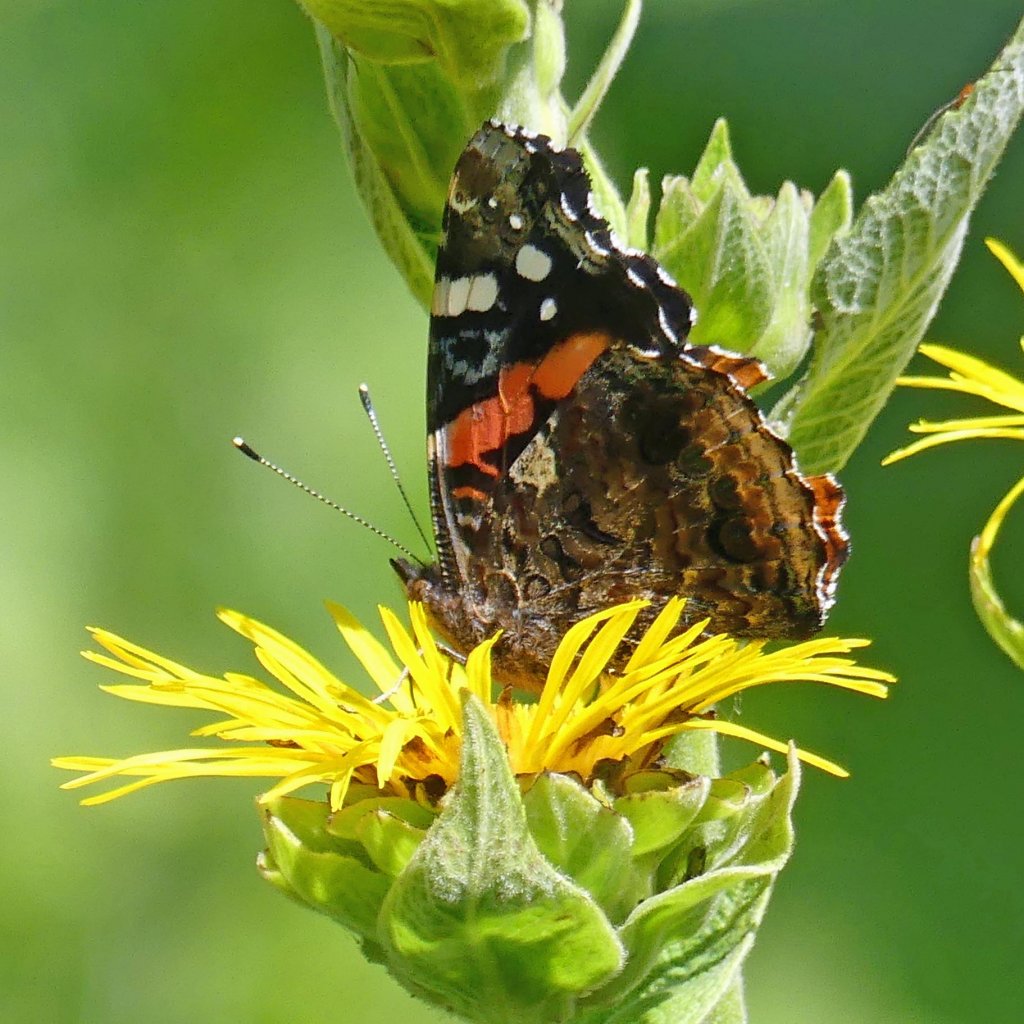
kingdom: Animalia
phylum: Arthropoda
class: Insecta
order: Lepidoptera
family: Nymphalidae
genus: Vanessa
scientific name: Vanessa atalanta
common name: Red Admiral
